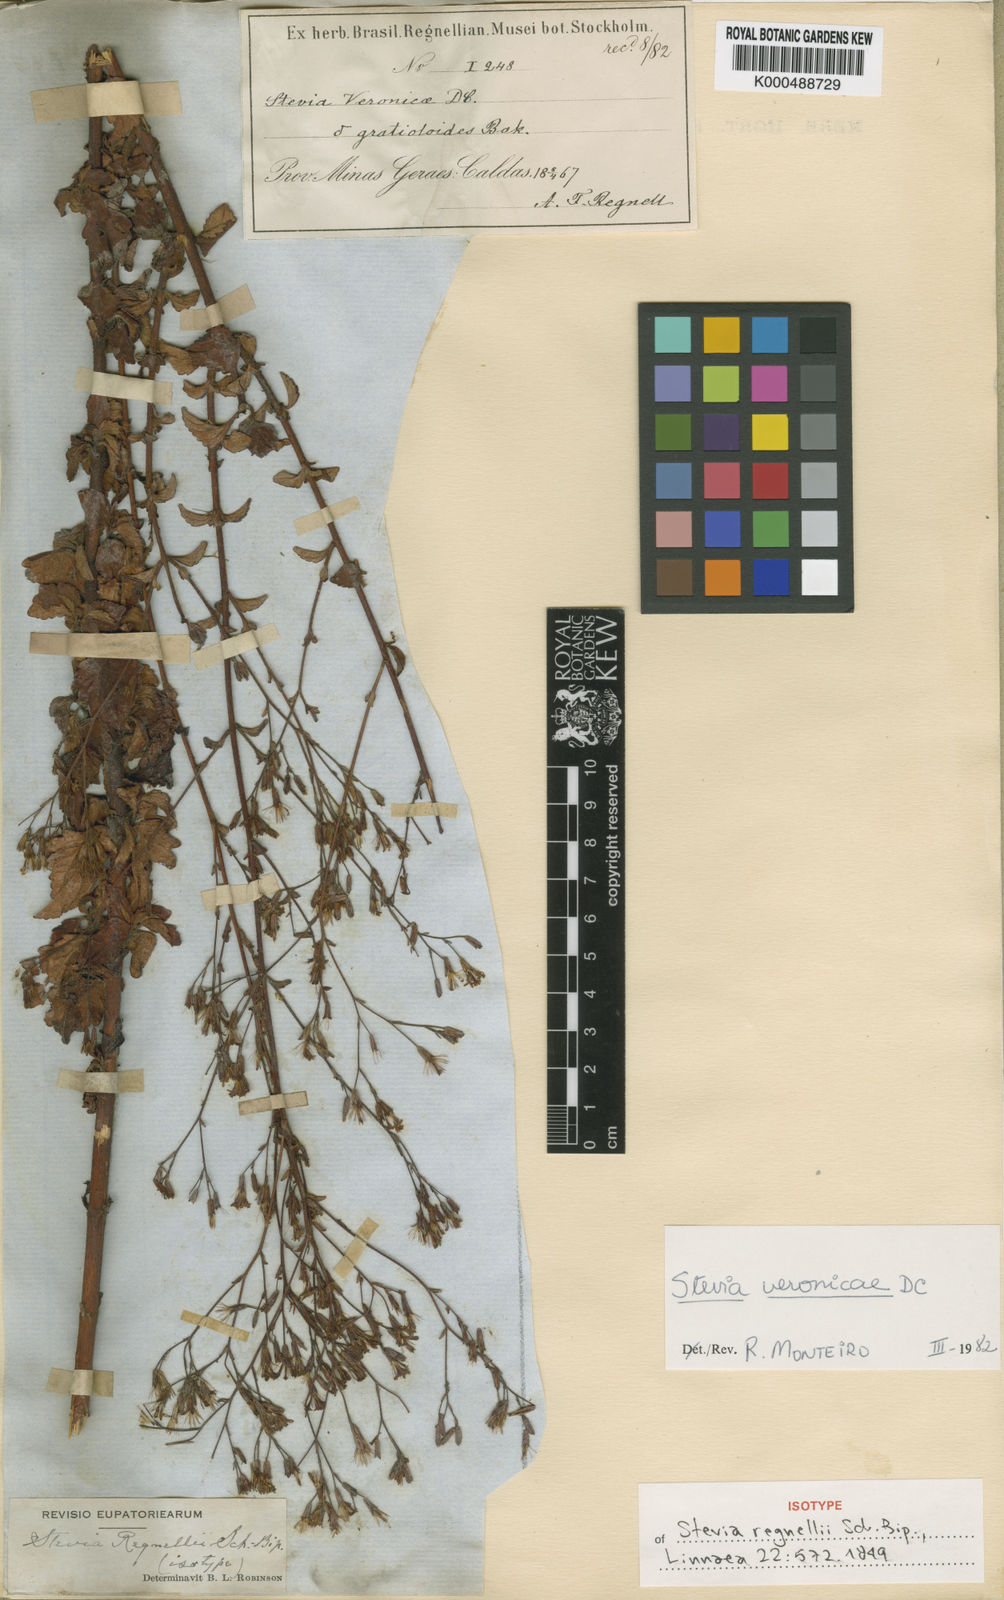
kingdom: Plantae
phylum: Tracheophyta
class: Magnoliopsida
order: Asterales
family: Asteraceae
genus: Stevia
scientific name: Stevia regnellii
